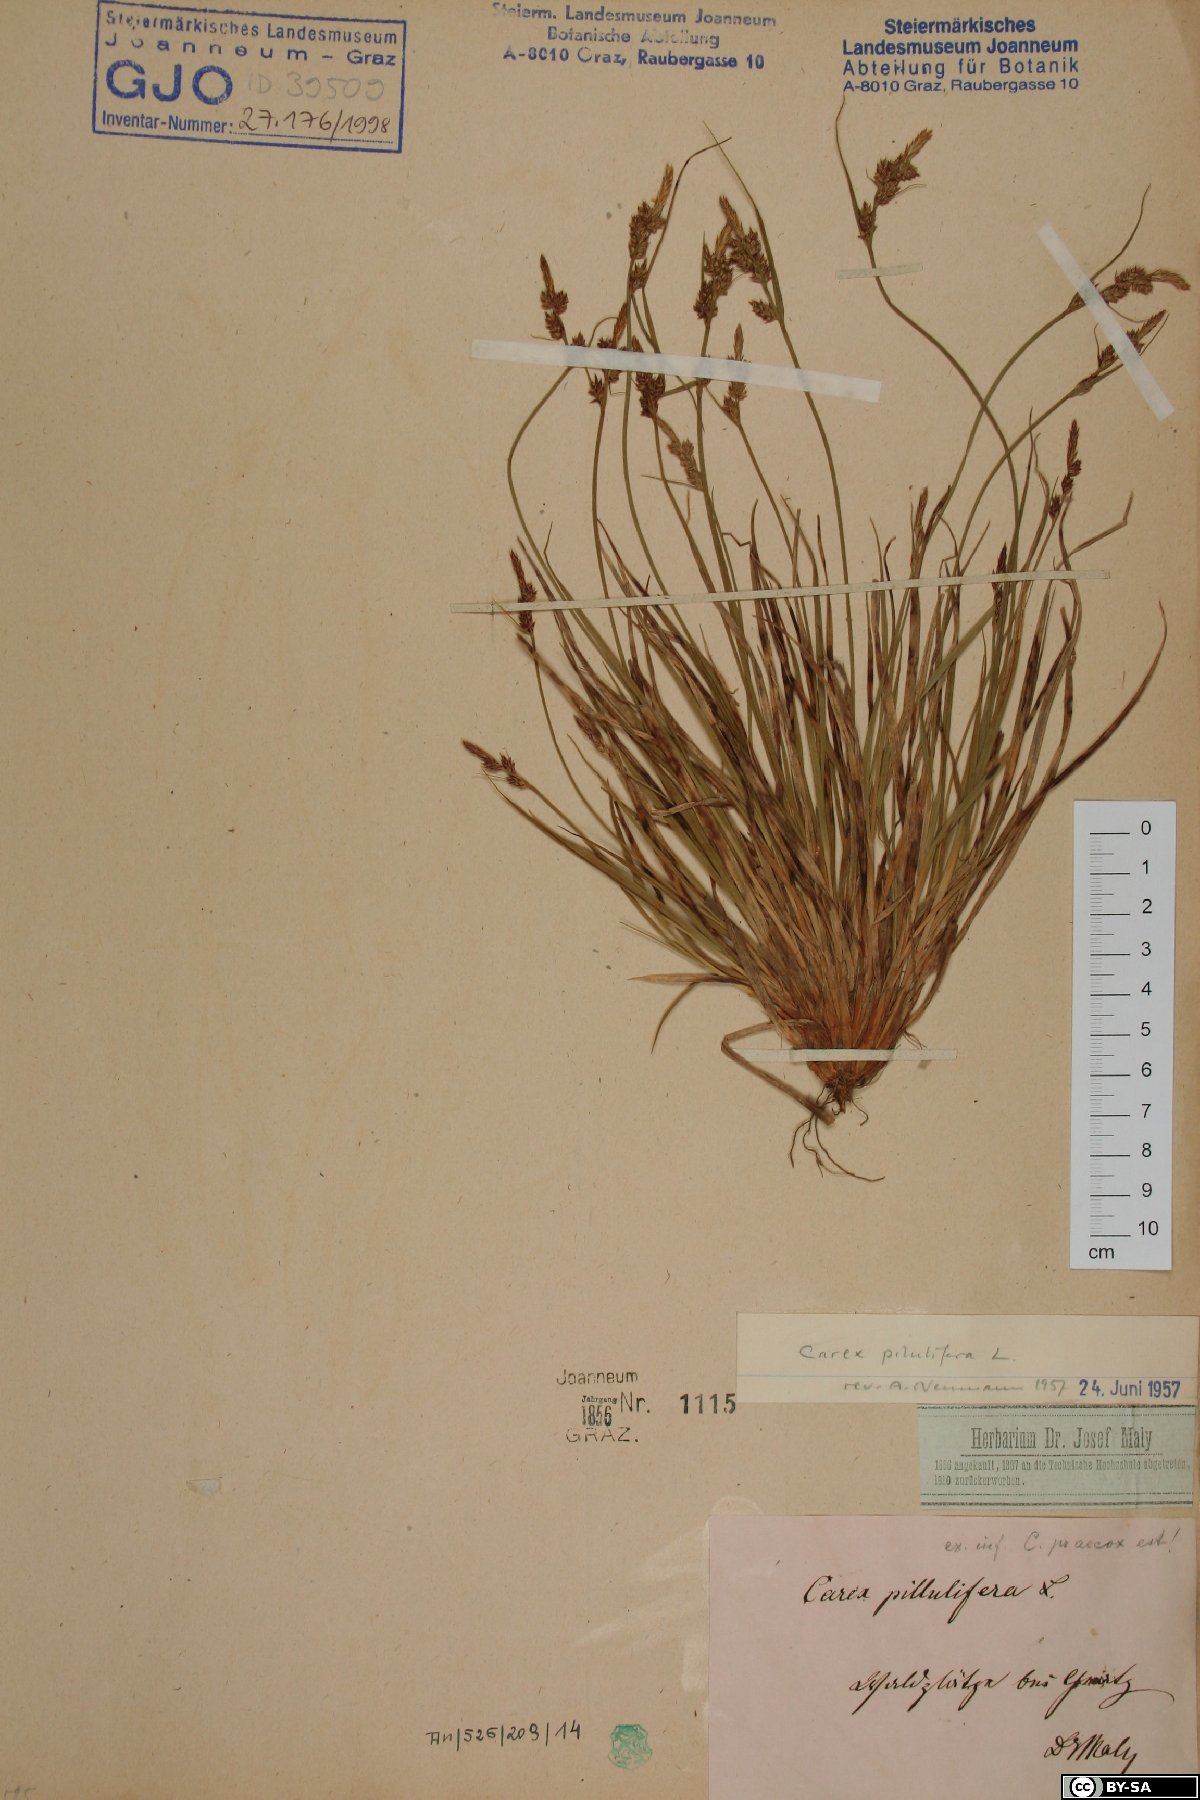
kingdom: Plantae
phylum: Tracheophyta
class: Liliopsida
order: Poales
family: Cyperaceae
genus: Carex
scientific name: Carex pilulifera
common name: Pill sedge
